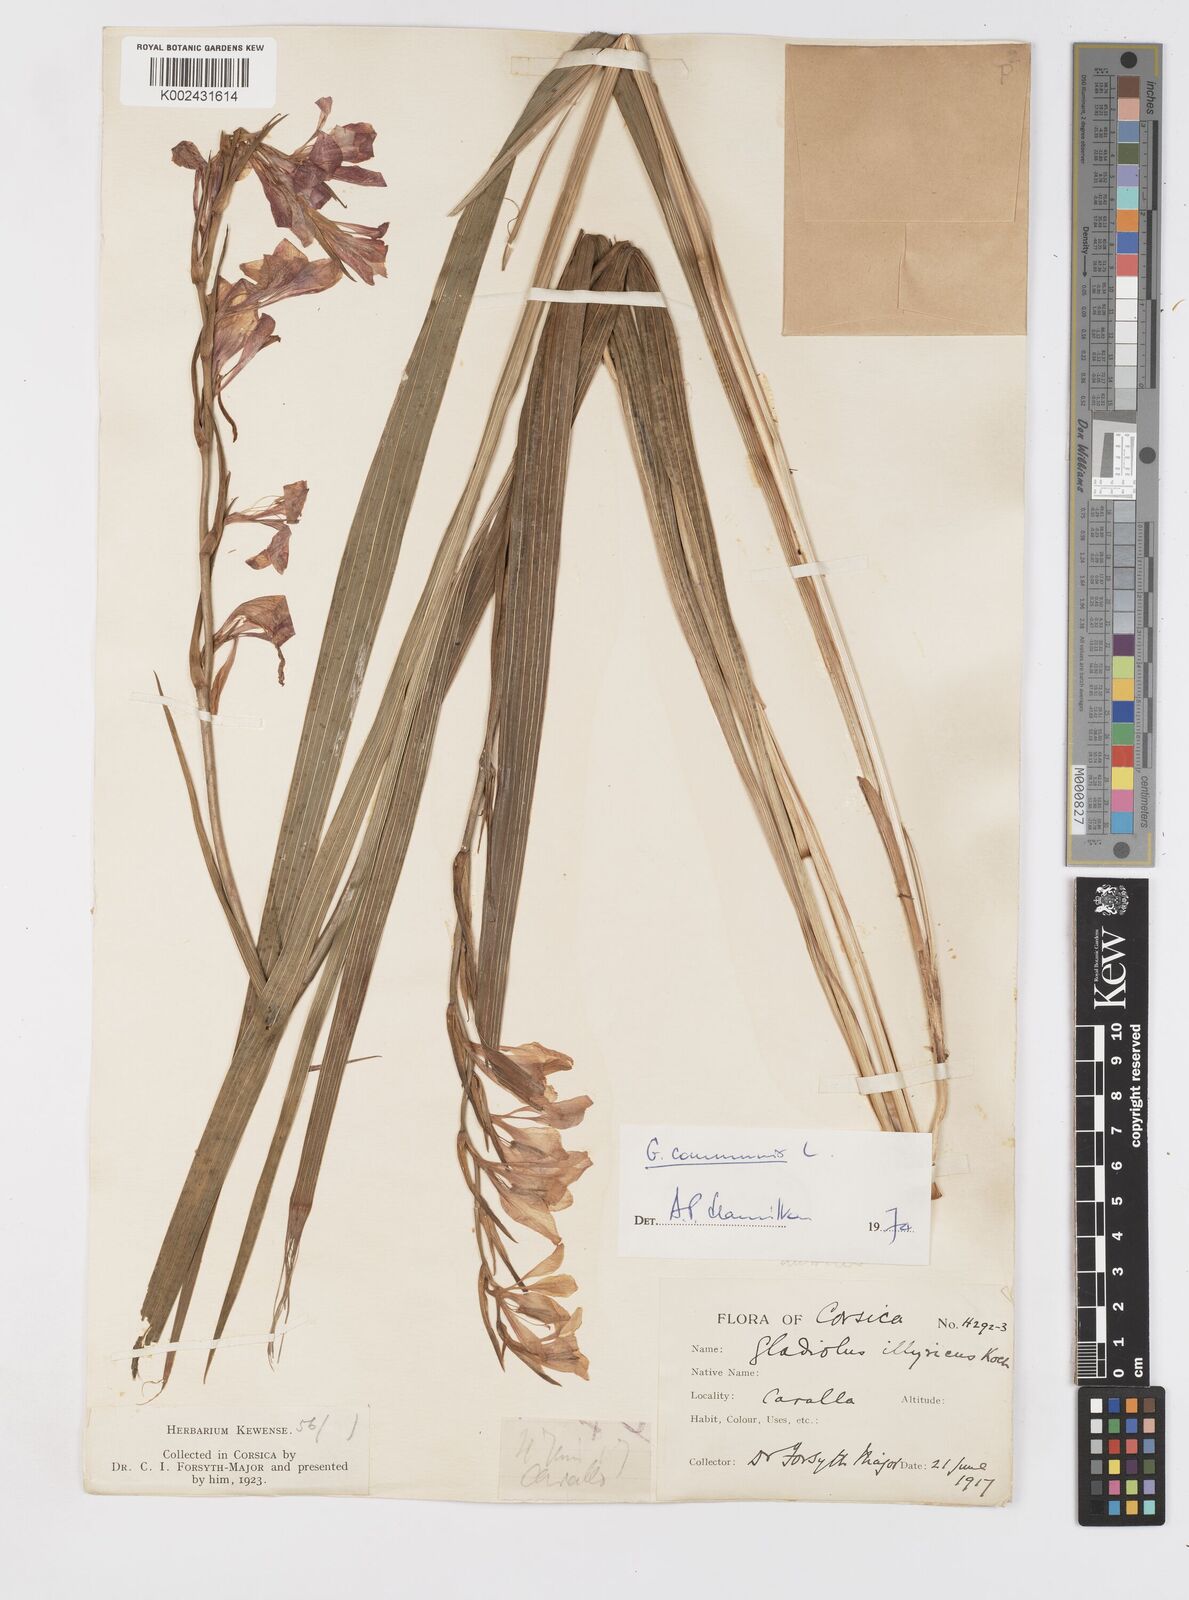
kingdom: Plantae
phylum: Tracheophyta
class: Liliopsida
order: Asparagales
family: Iridaceae
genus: Gladiolus
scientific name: Gladiolus communis
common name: Eastern gladiolus
